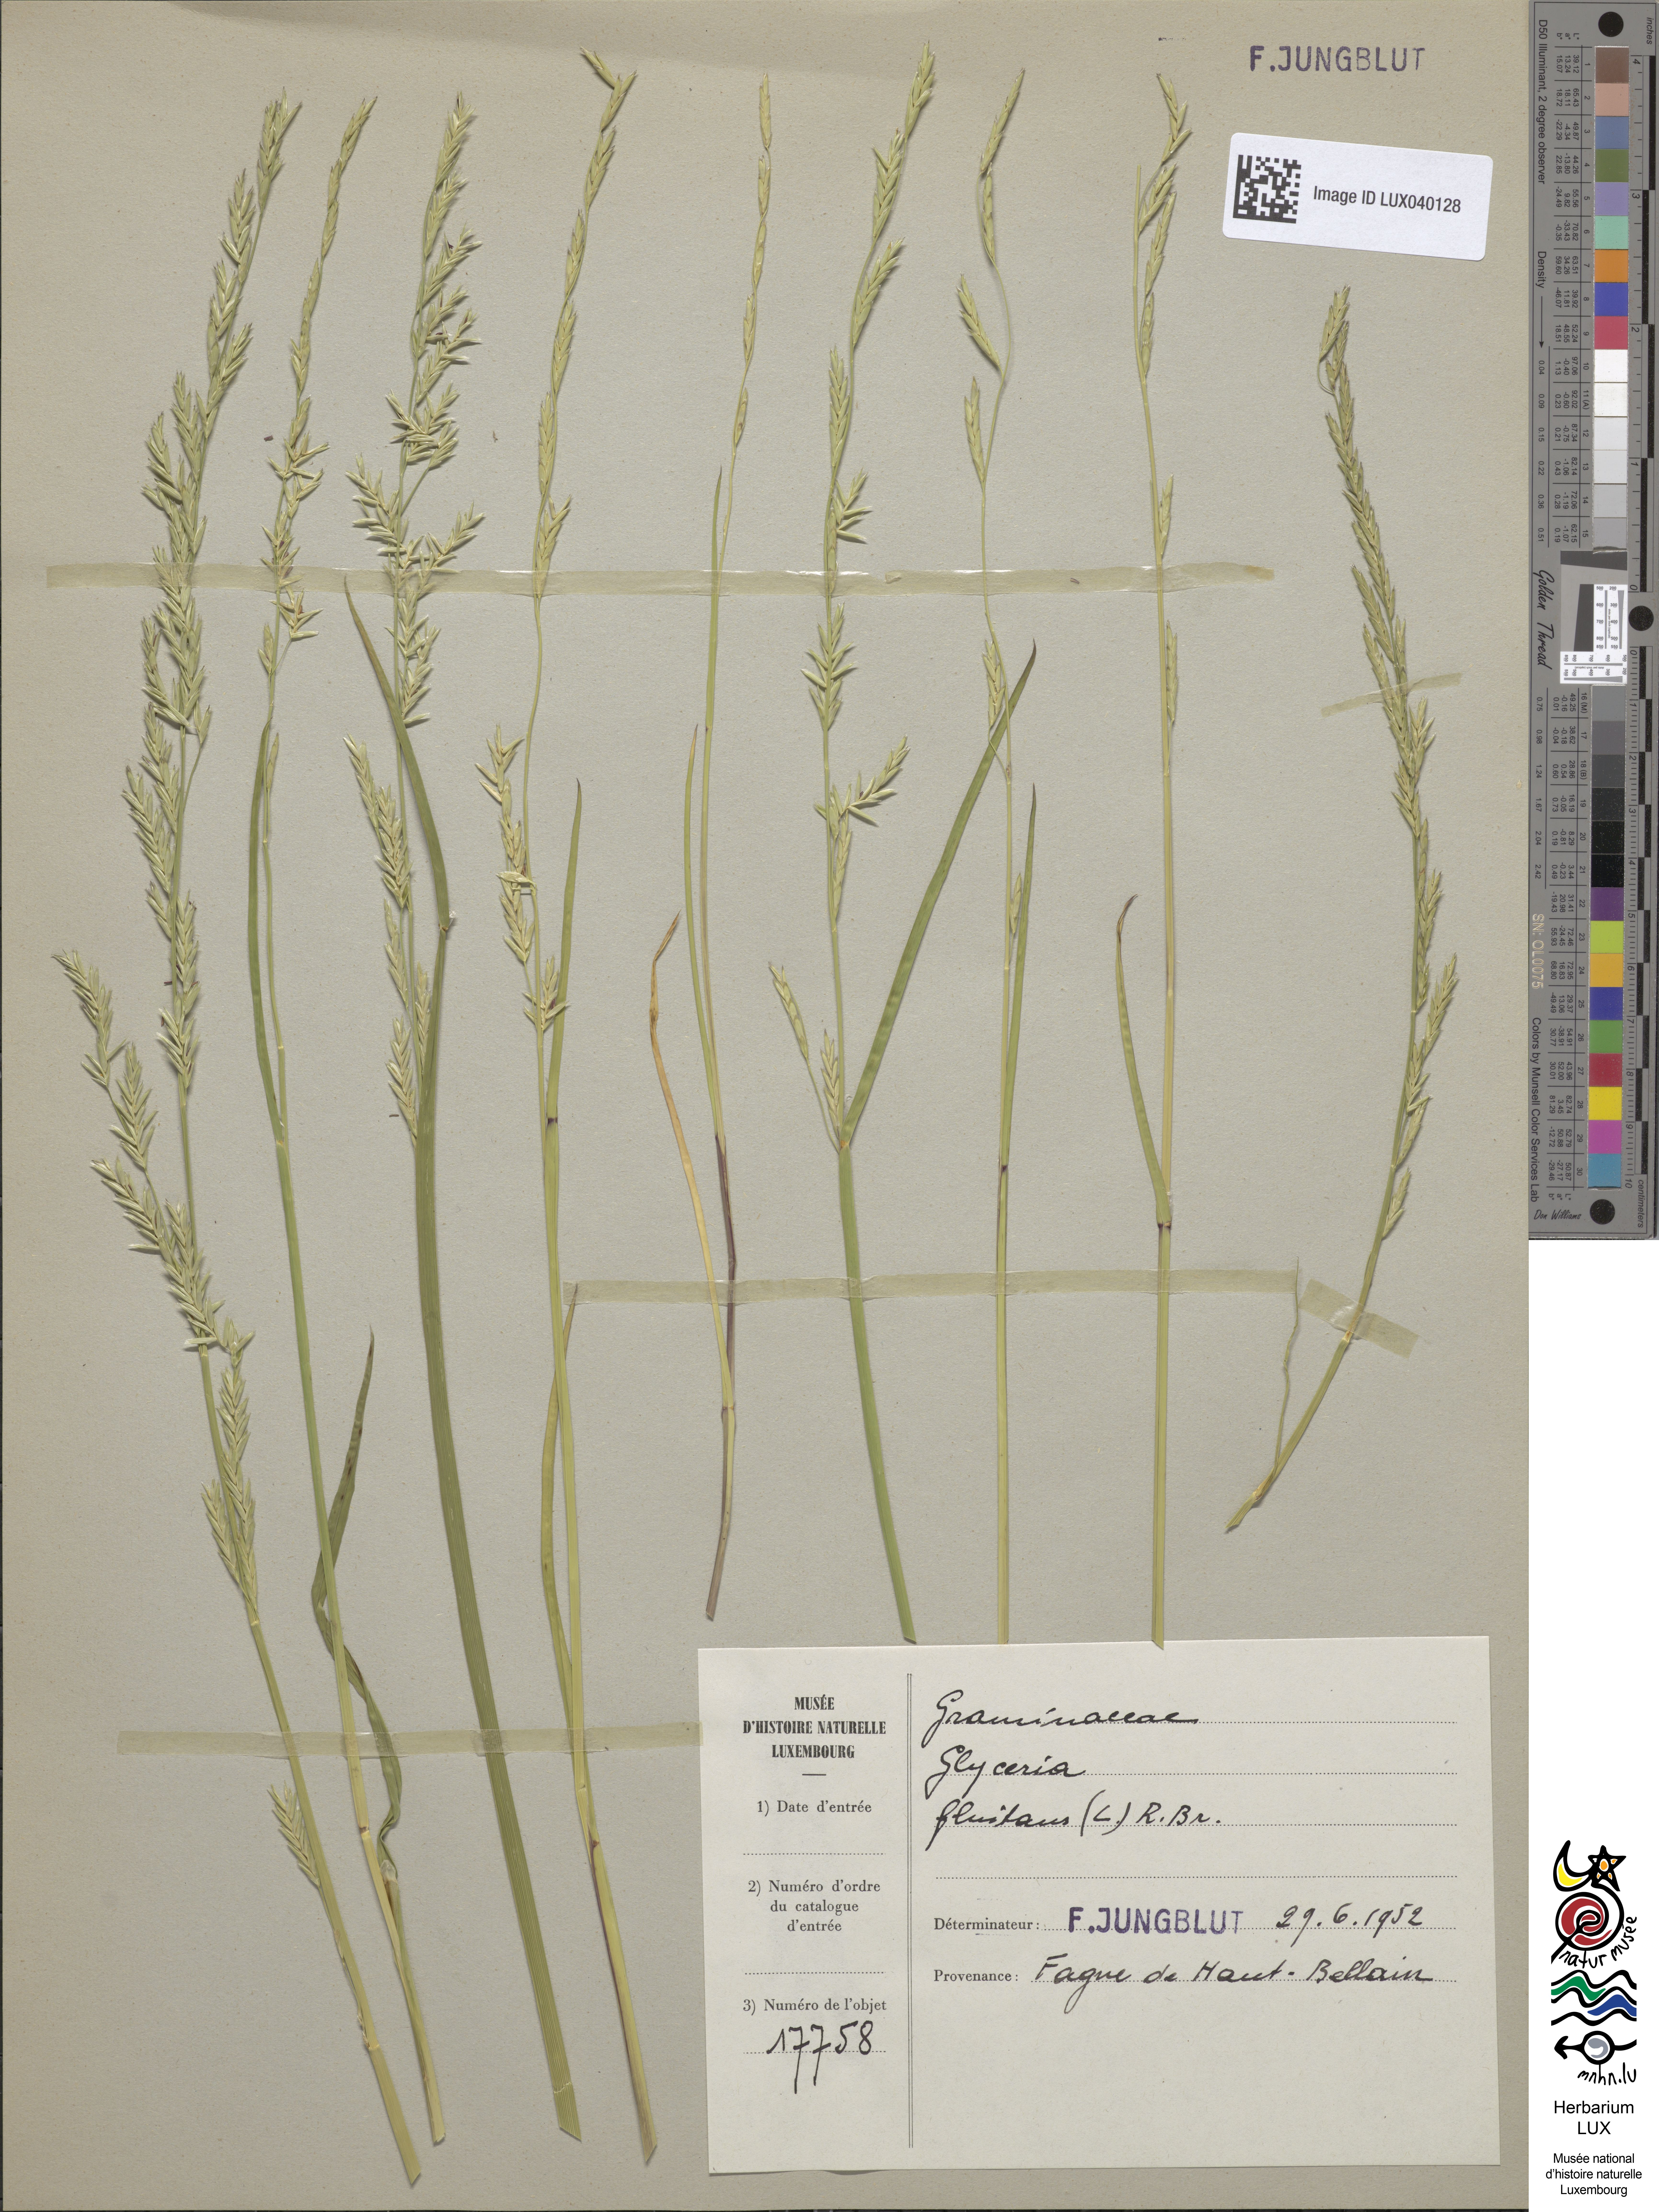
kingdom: Plantae
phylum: Tracheophyta
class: Liliopsida
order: Poales
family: Poaceae
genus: Glyceria
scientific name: Glyceria fluitans
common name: Floating sweet-grass
